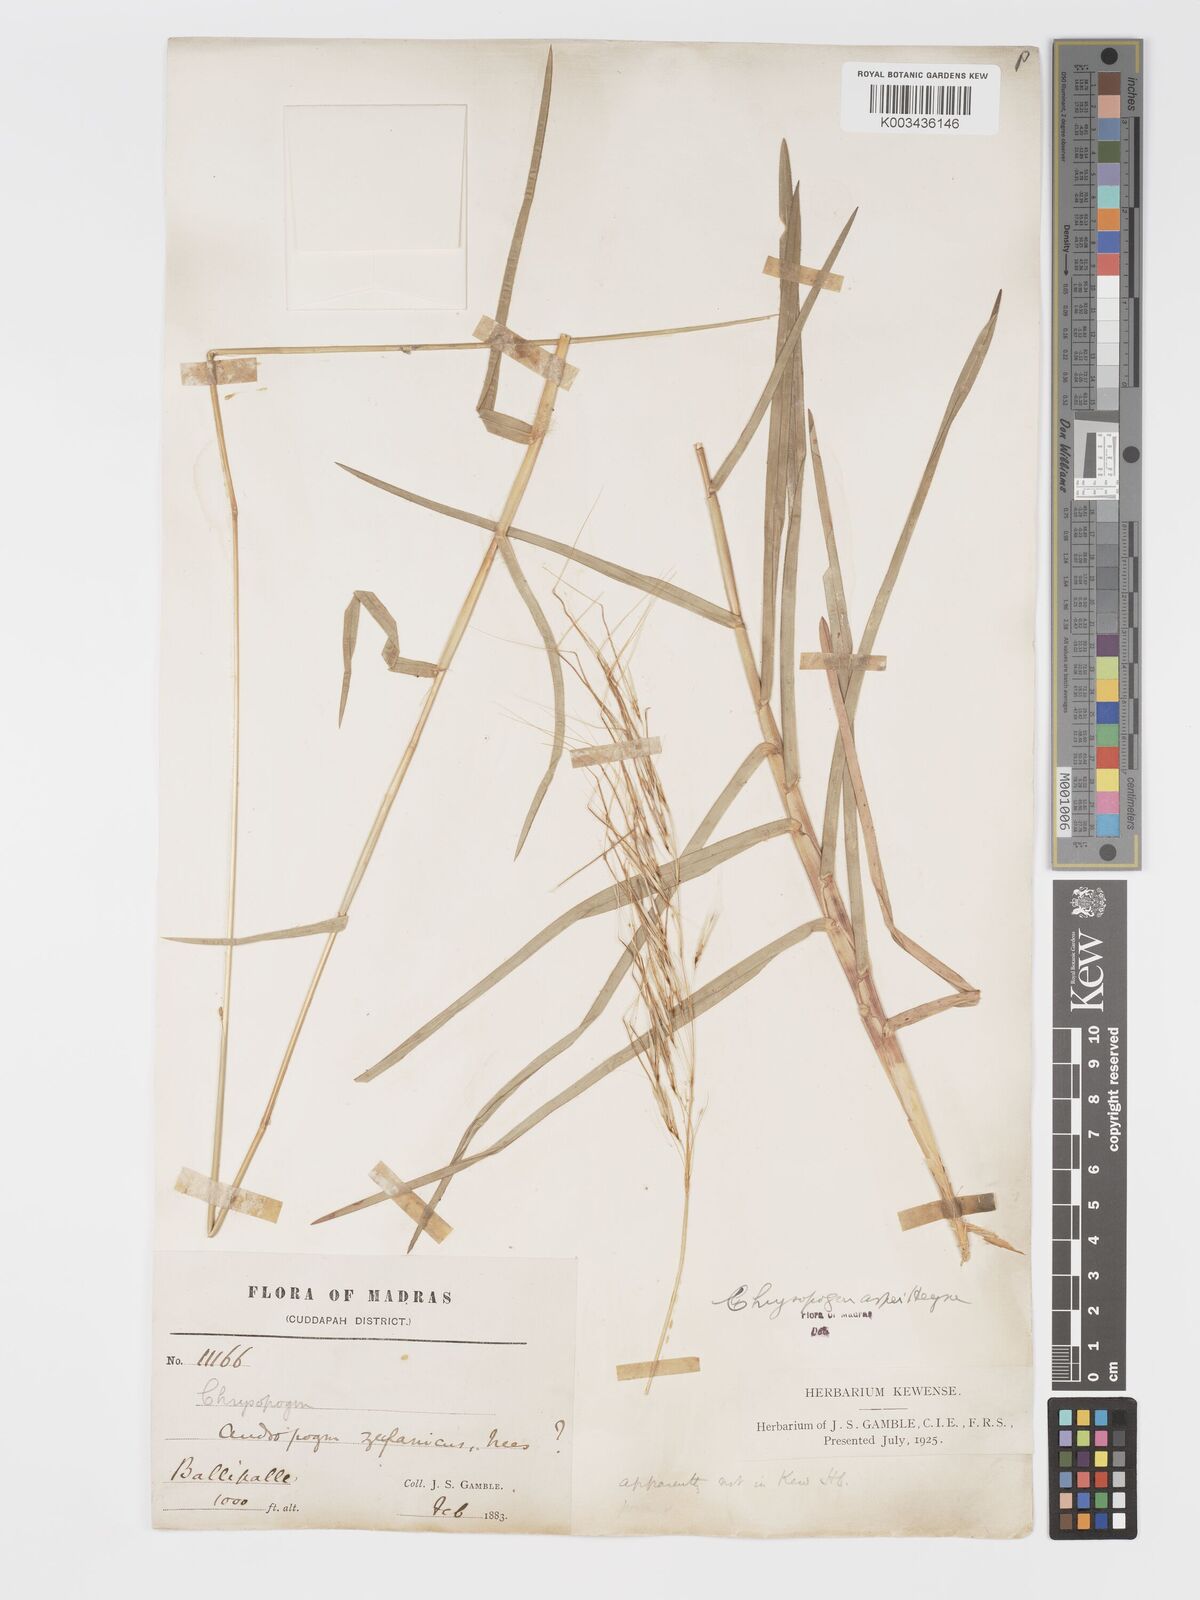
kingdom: Plantae
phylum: Tracheophyta
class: Liliopsida
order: Poales
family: Poaceae
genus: Chrysopogon
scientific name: Chrysopogon asper
